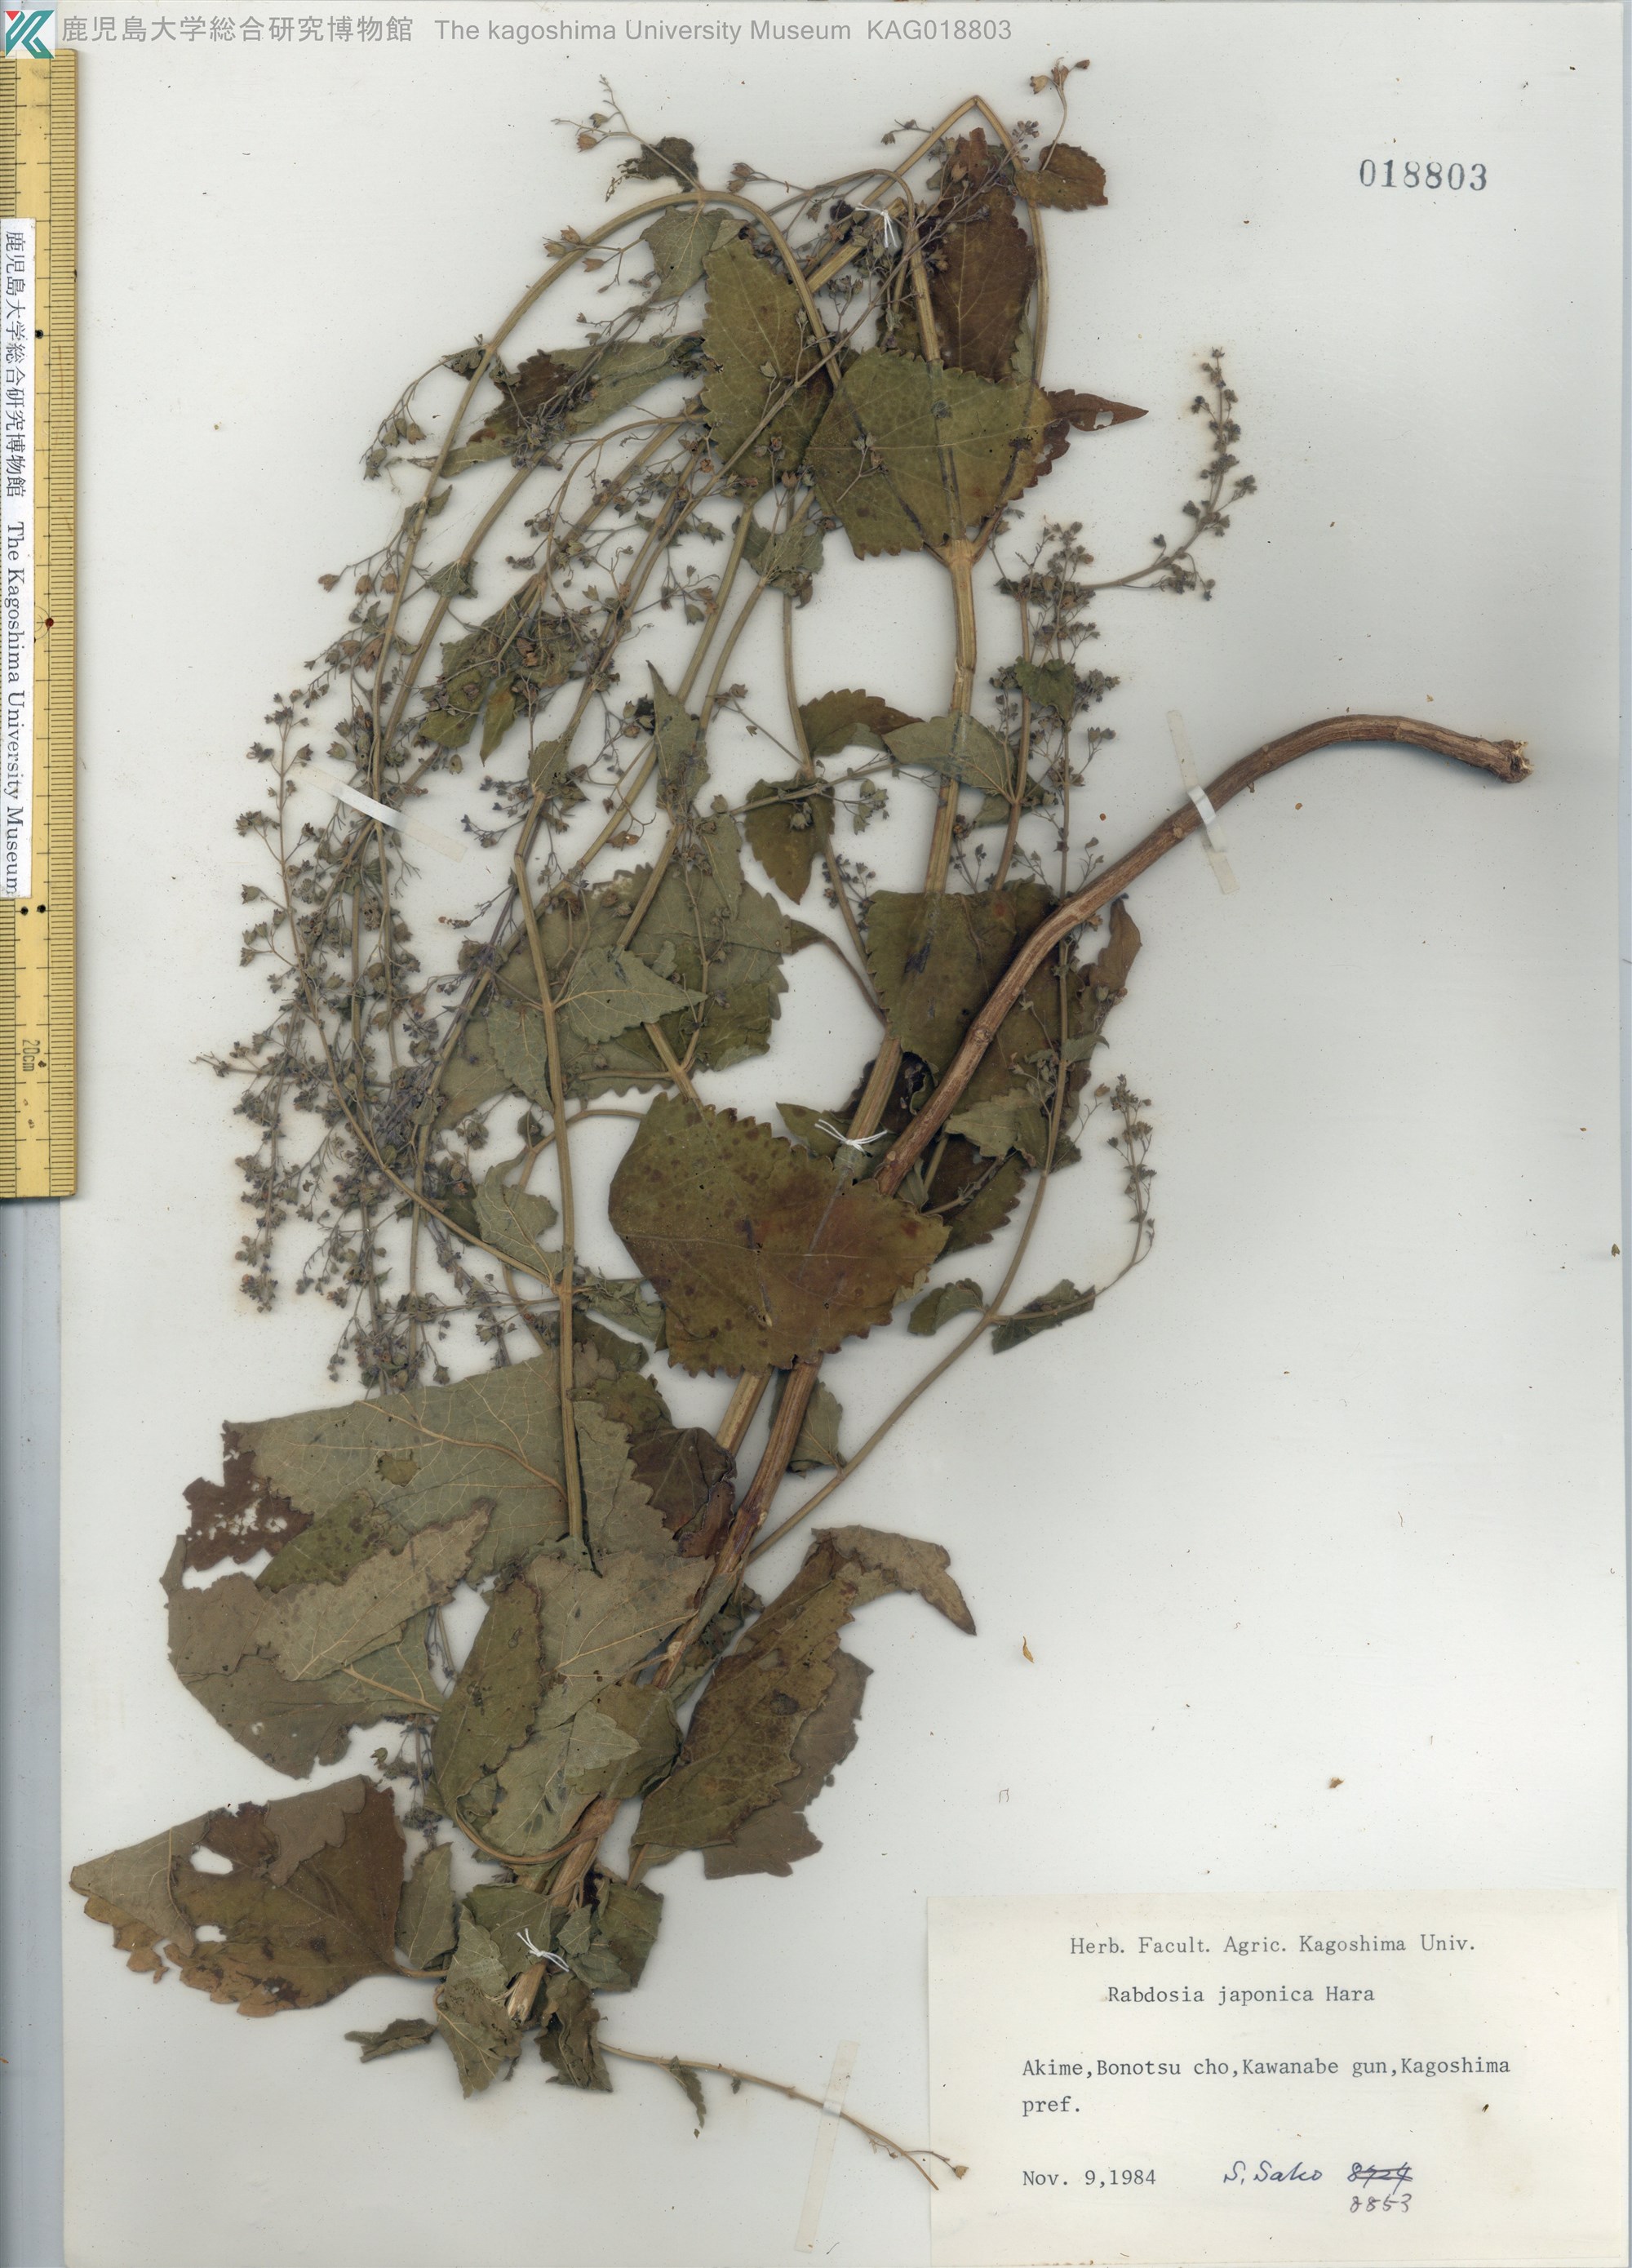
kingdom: Plantae
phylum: Tracheophyta
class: Magnoliopsida
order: Lamiales
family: Lamiaceae
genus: Isodon
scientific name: Isodon japonicus
